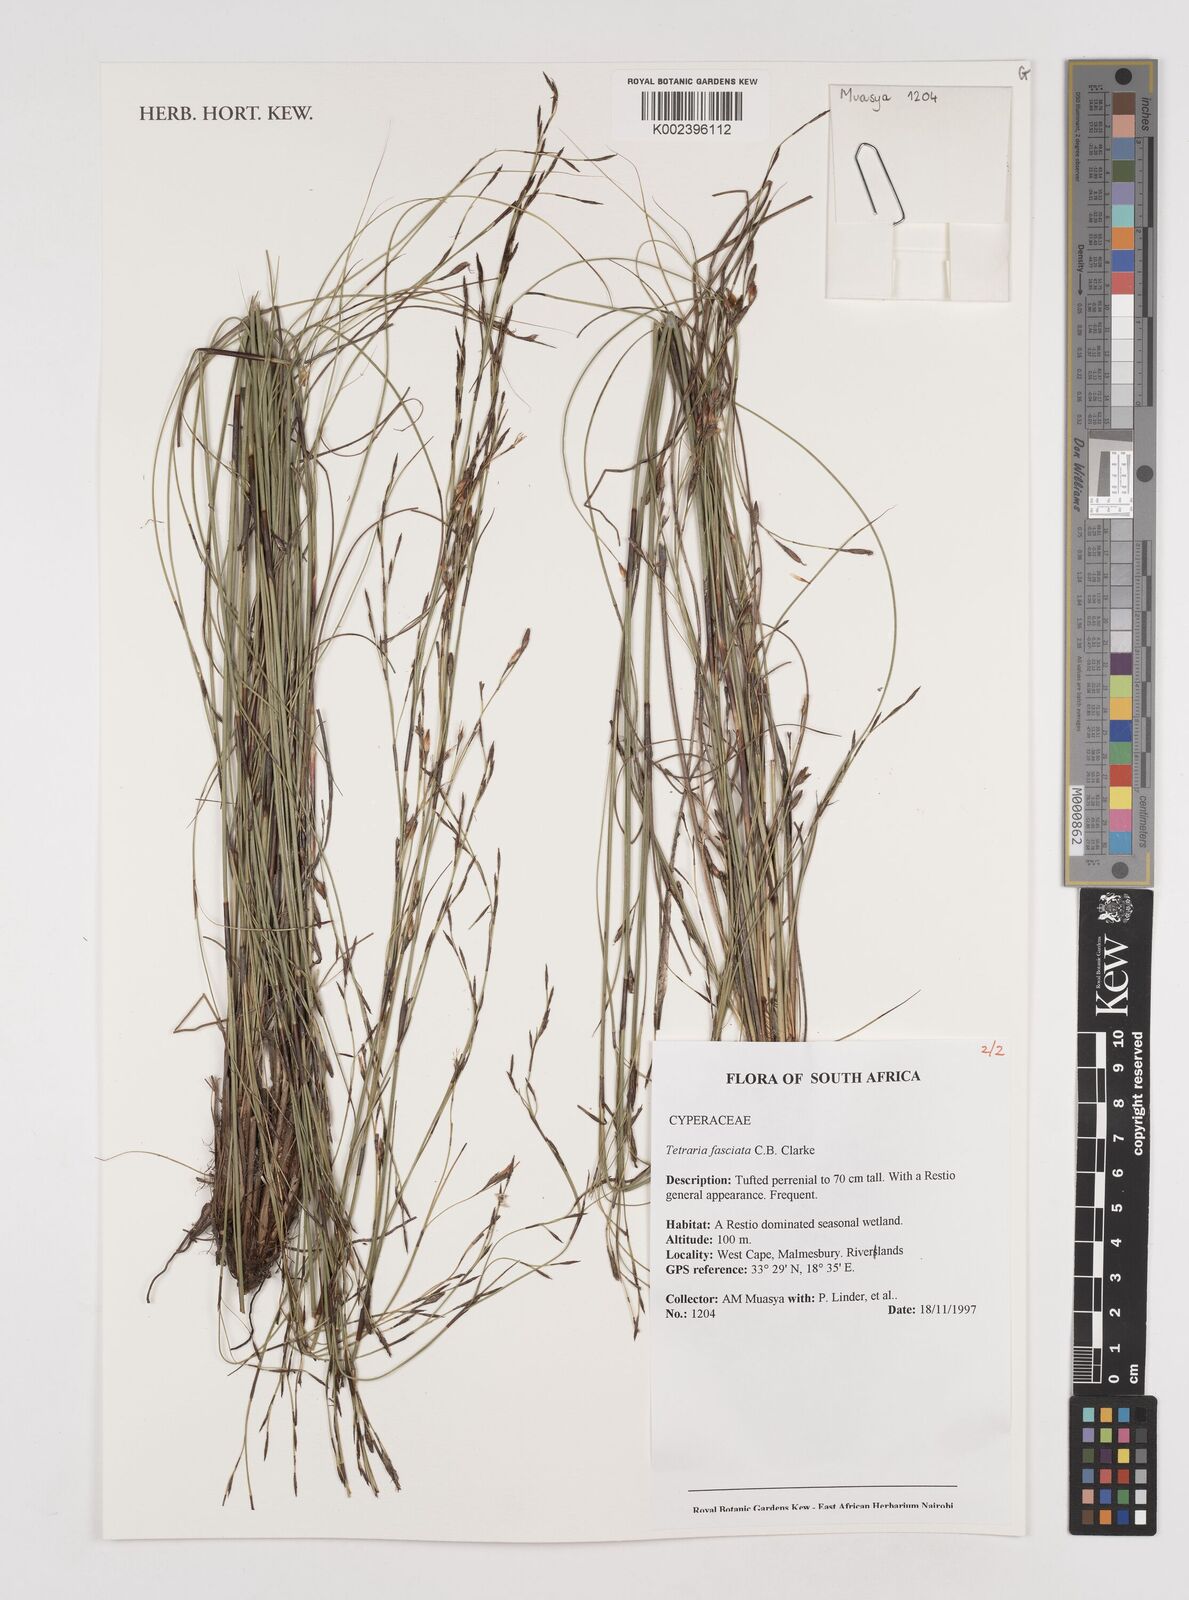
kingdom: Plantae
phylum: Tracheophyta
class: Liliopsida
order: Poales
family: Cyperaceae
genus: Tetraria
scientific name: Tetraria fasciata
